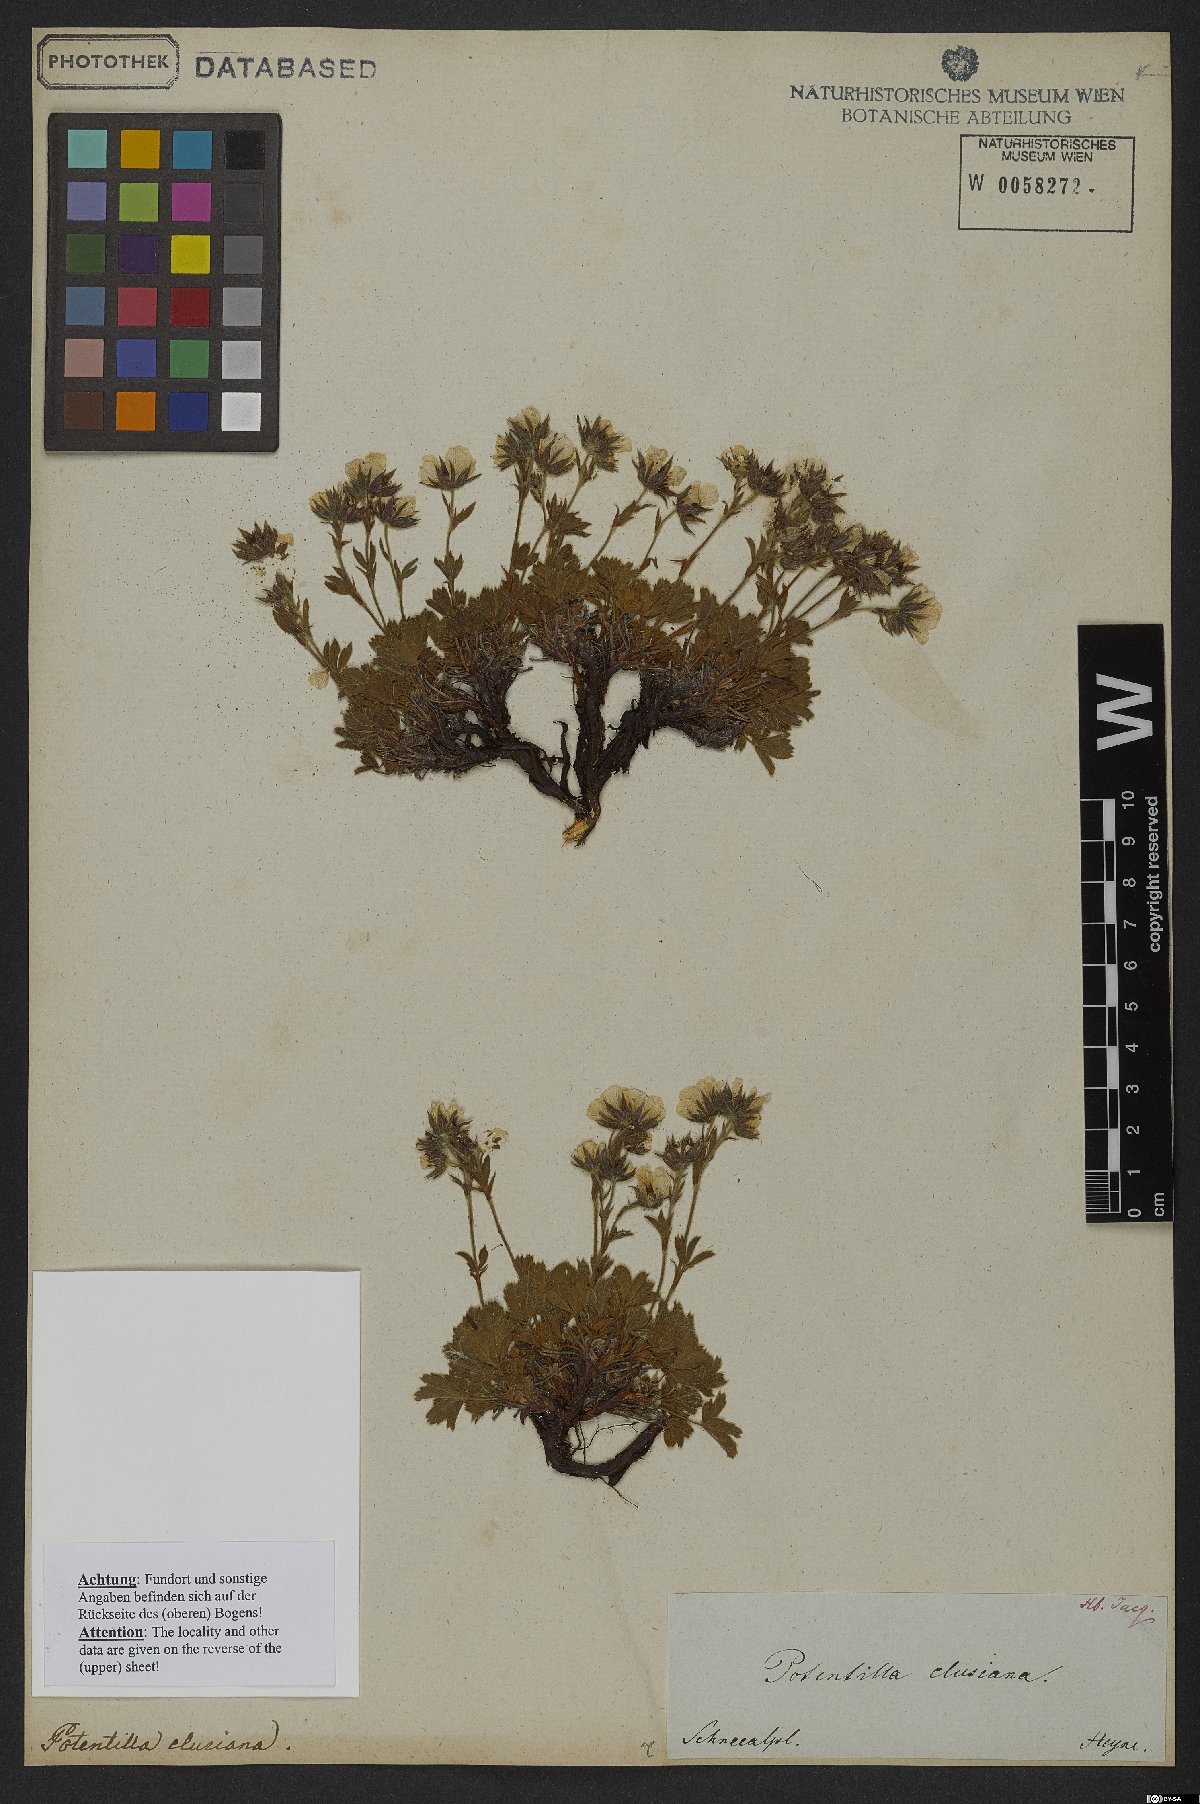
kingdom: Plantae
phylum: Tracheophyta
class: Magnoliopsida
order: Rosales
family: Rosaceae
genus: Potentilla
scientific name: Potentilla clusiana
